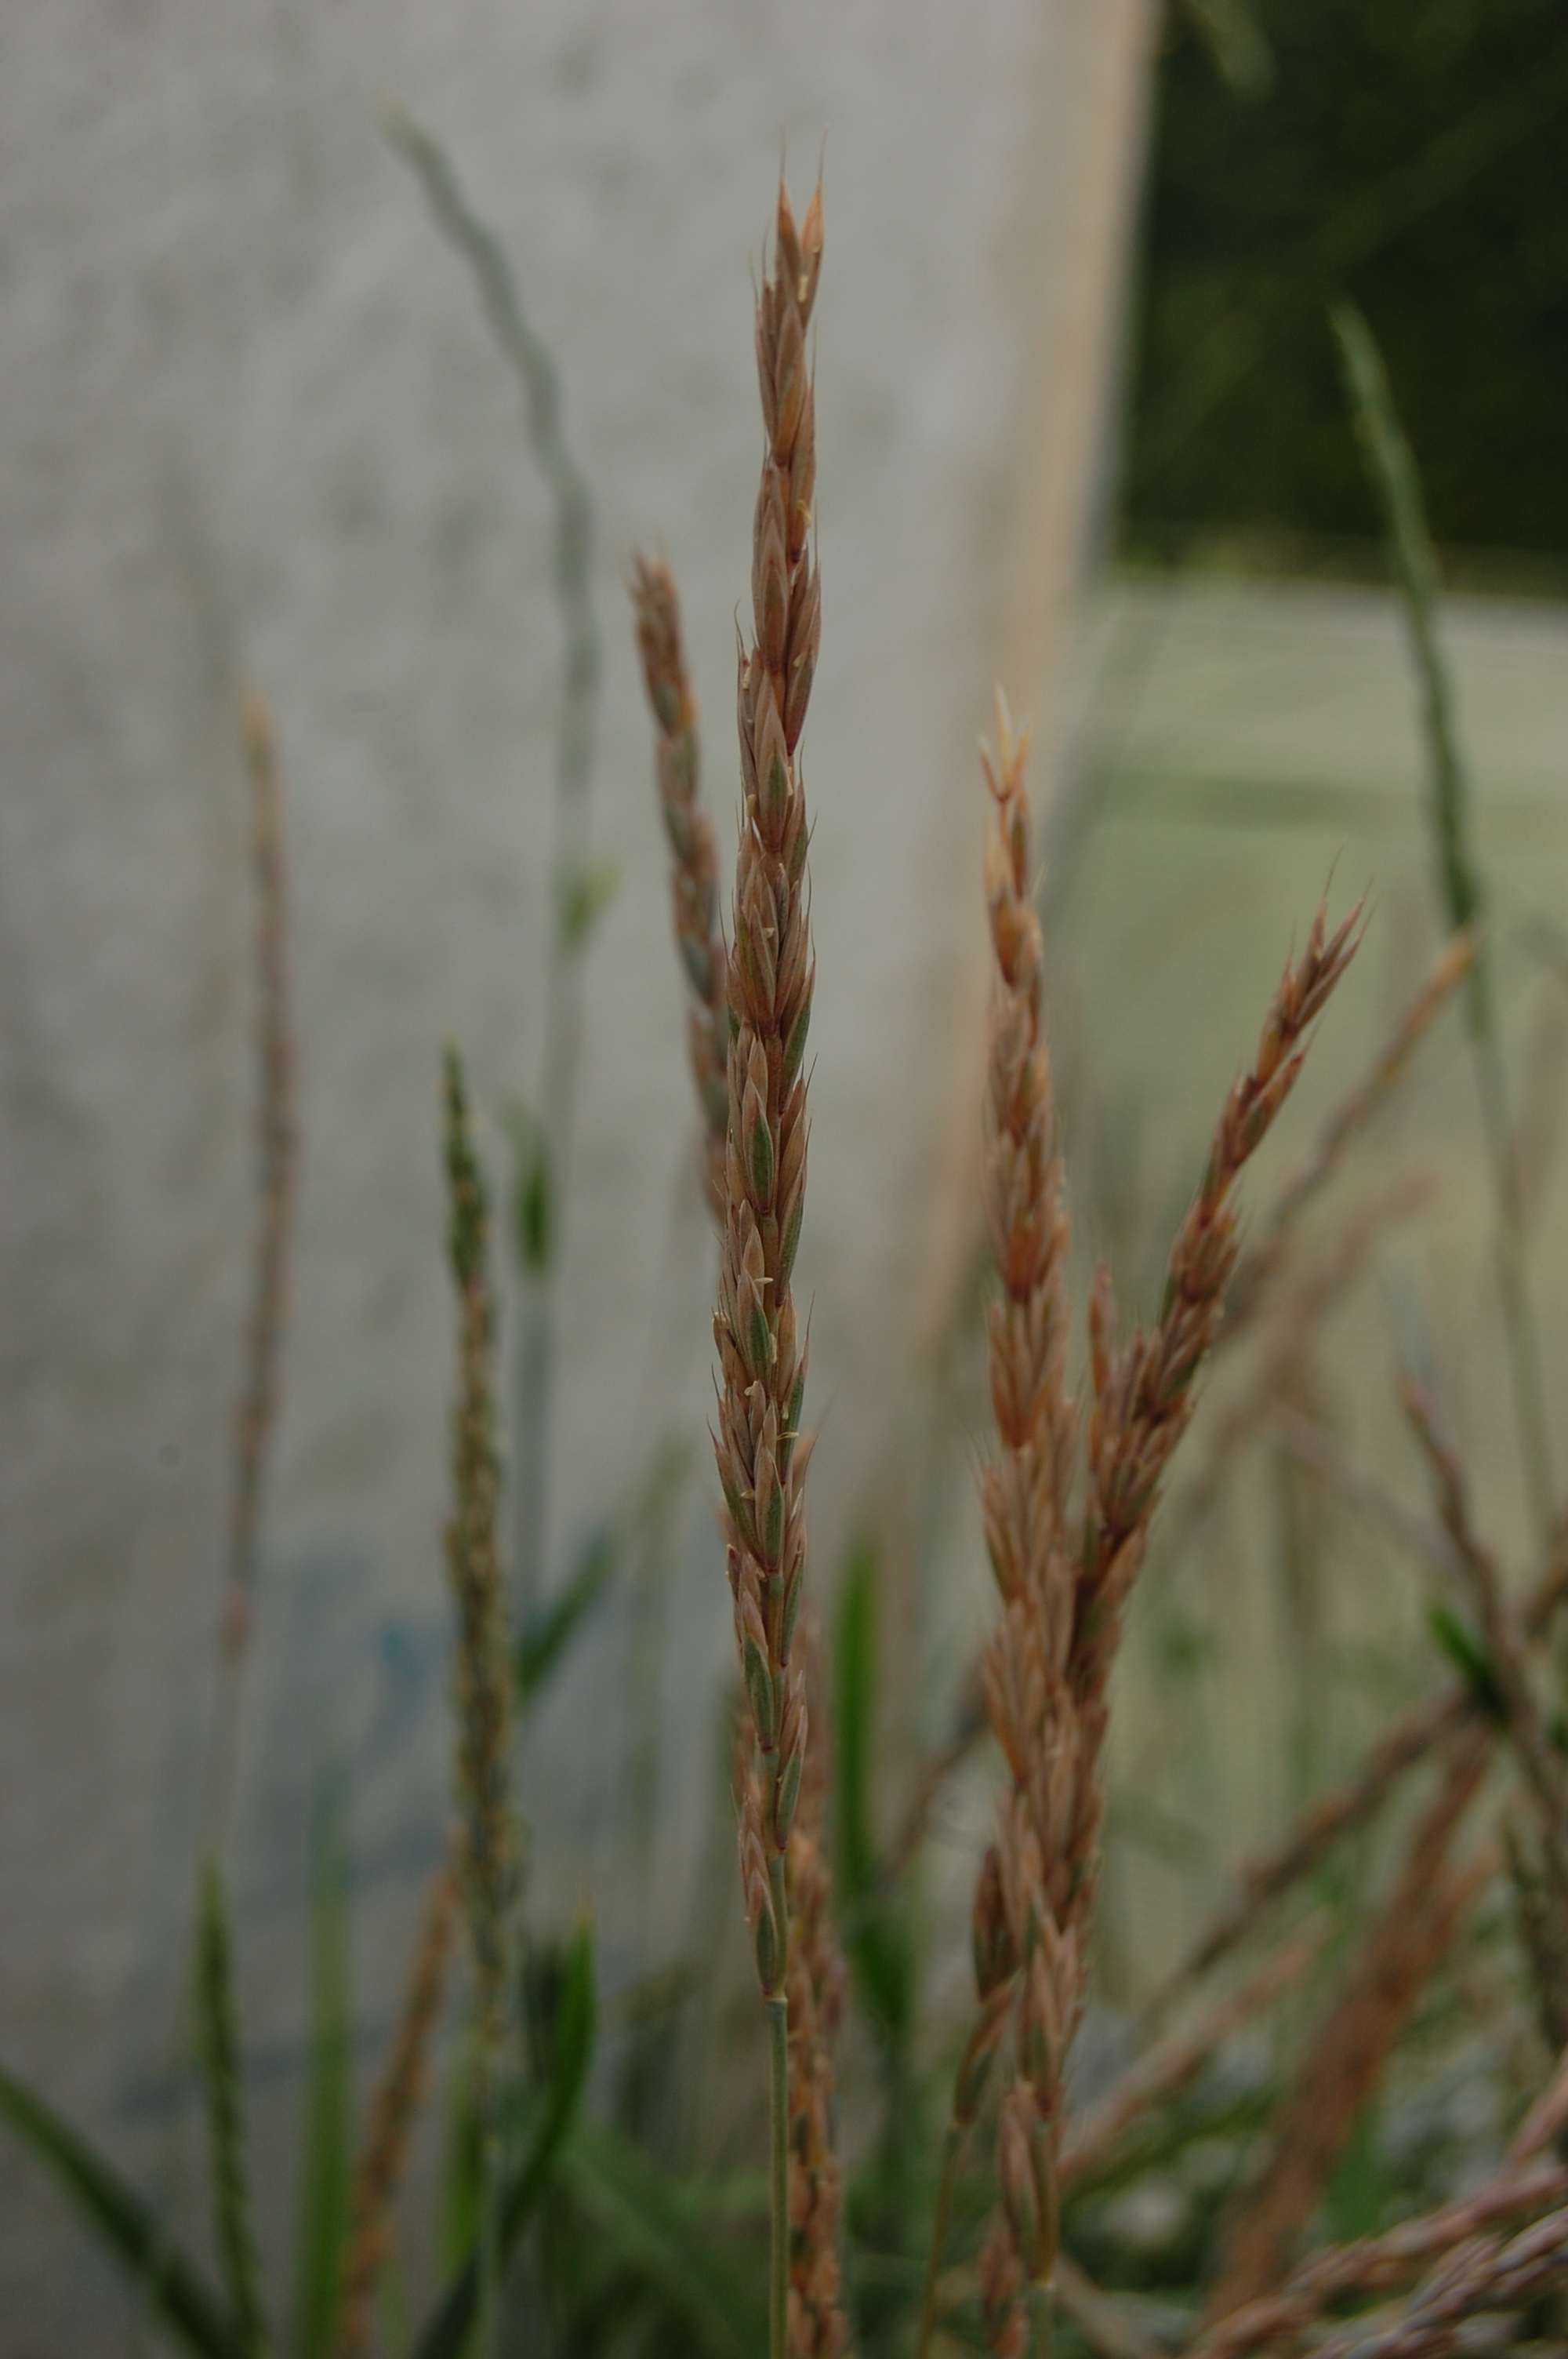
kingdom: Plantae
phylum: Tracheophyta
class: Liliopsida
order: Poales
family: Poaceae
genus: Elymus
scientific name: Elymus alaskanus
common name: Alaska wheatgrass
